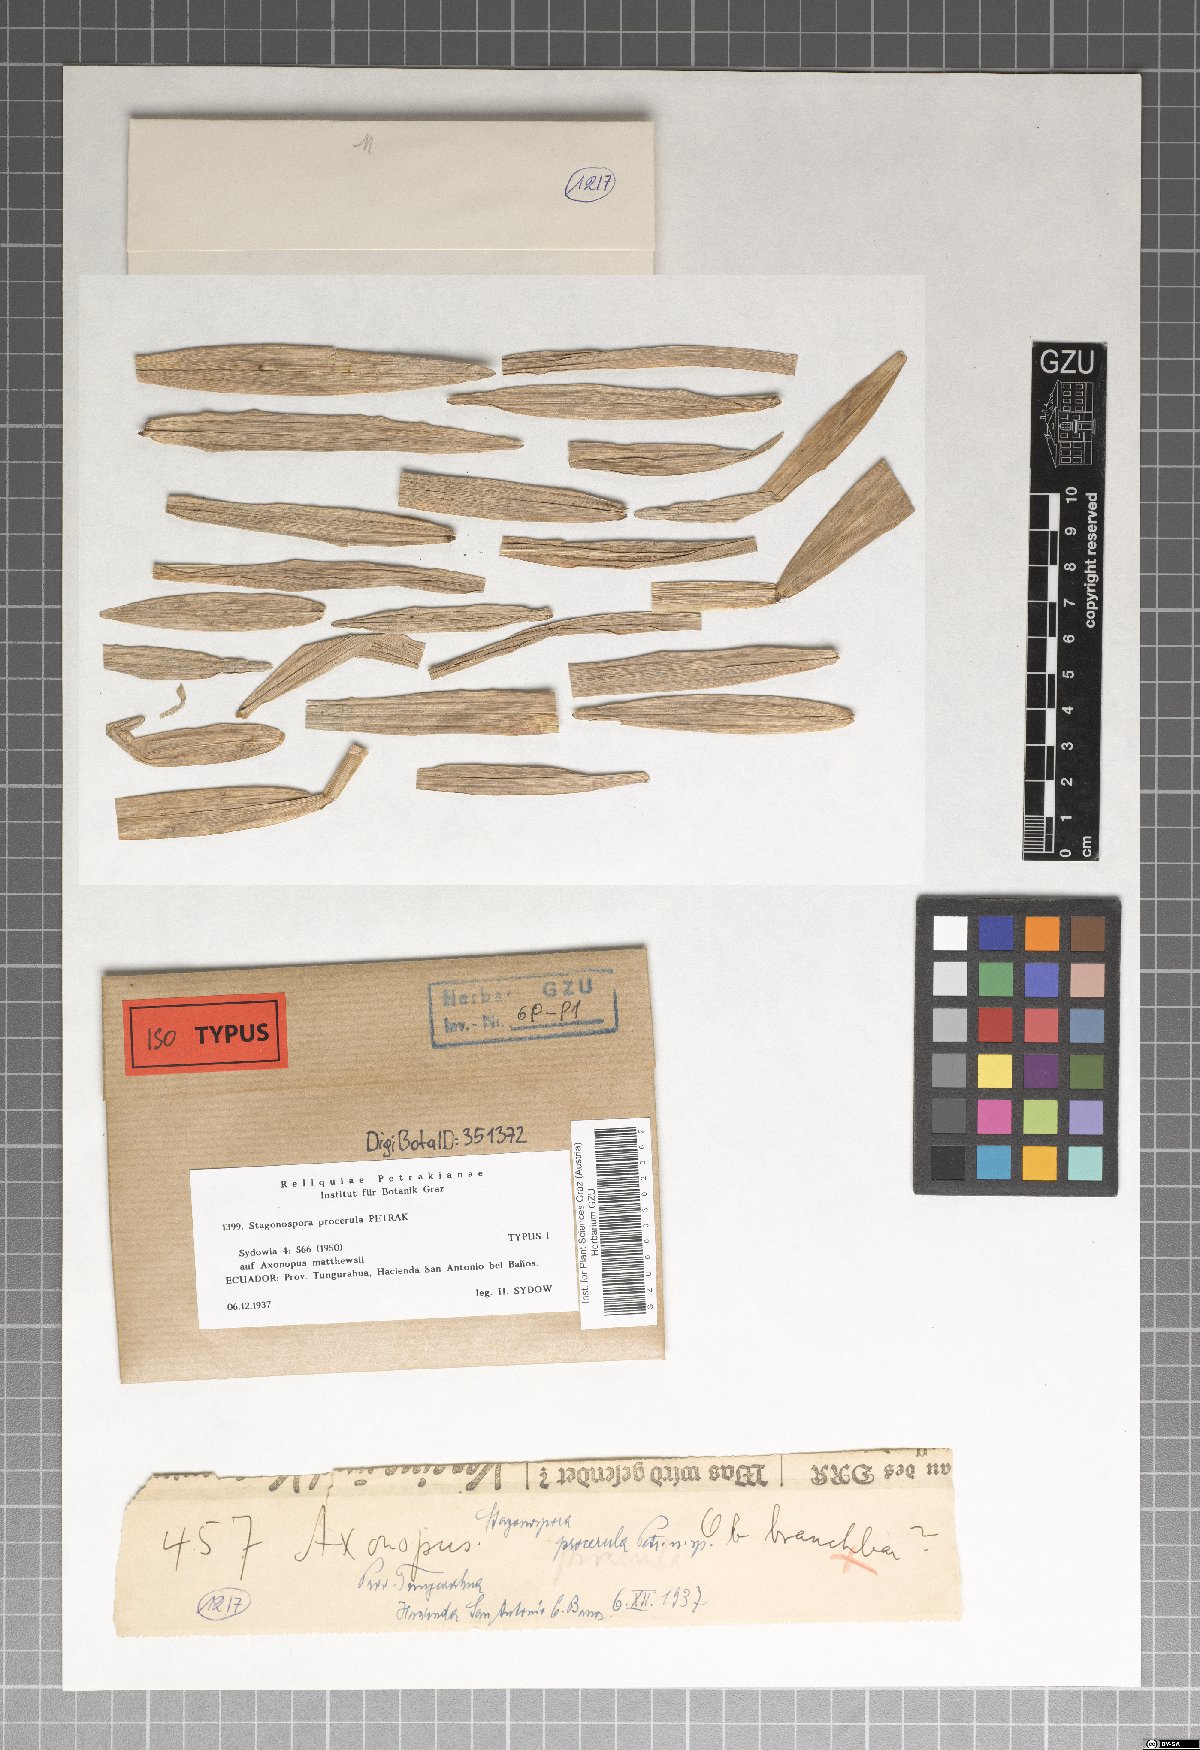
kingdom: Fungi
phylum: Ascomycota
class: Dothideomycetes
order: Pleosporales
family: Phaeosphaeriaceae
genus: Stagonospora
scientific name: Stagonospora procerula
